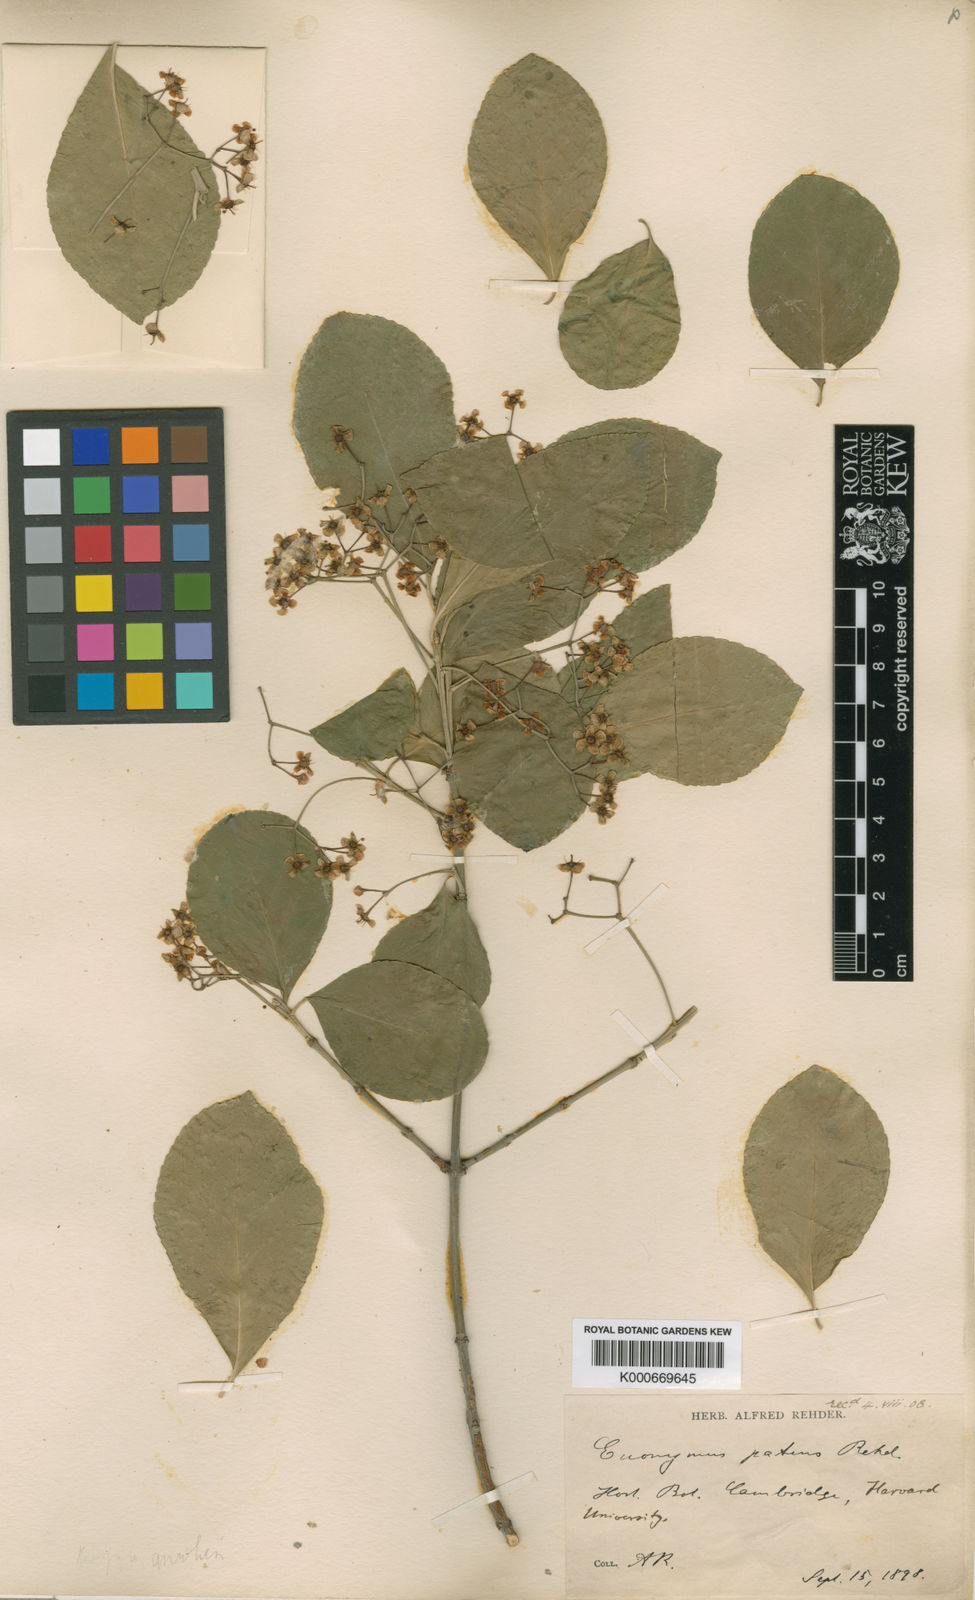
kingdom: Plantae
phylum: Tracheophyta
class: Magnoliopsida
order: Celastrales
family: Celastraceae
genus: Euonymus
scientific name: Euonymus fortunei
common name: Climbing euonymus
